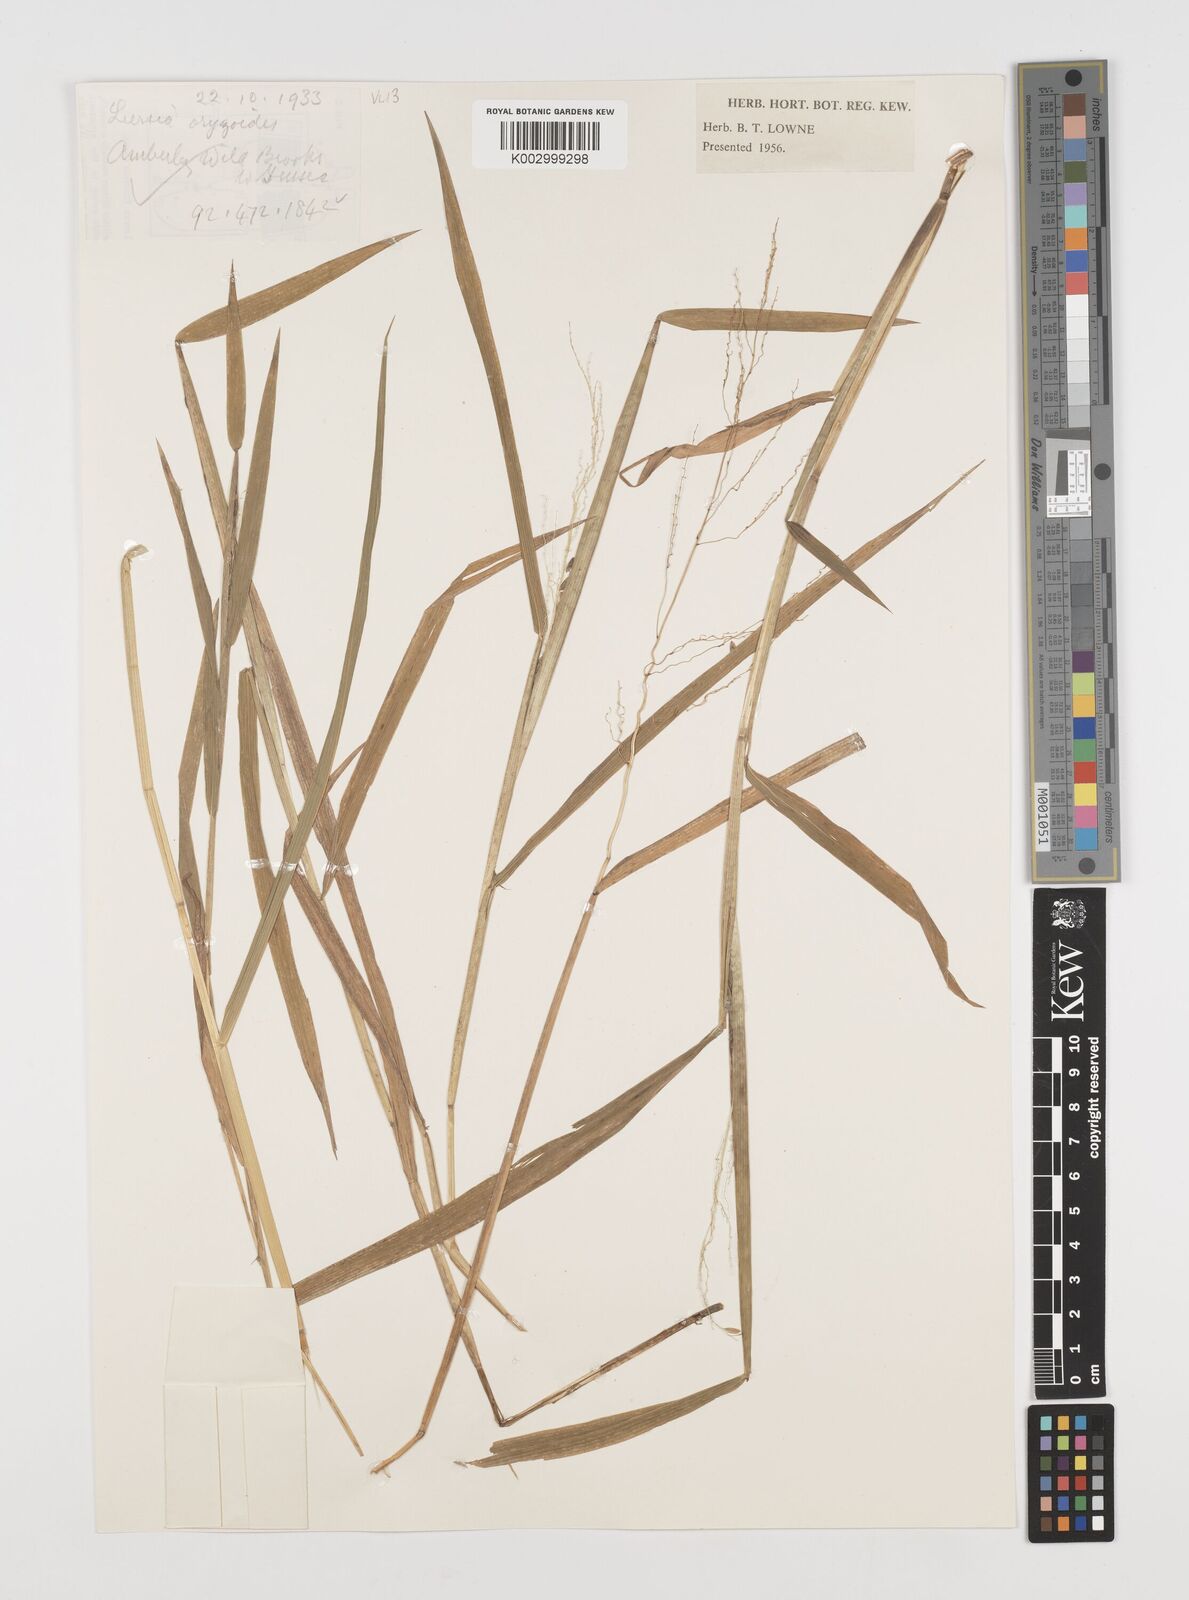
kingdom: Plantae
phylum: Tracheophyta
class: Liliopsida
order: Poales
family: Poaceae
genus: Leersia
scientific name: Leersia oryzoides
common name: Cut-grass
